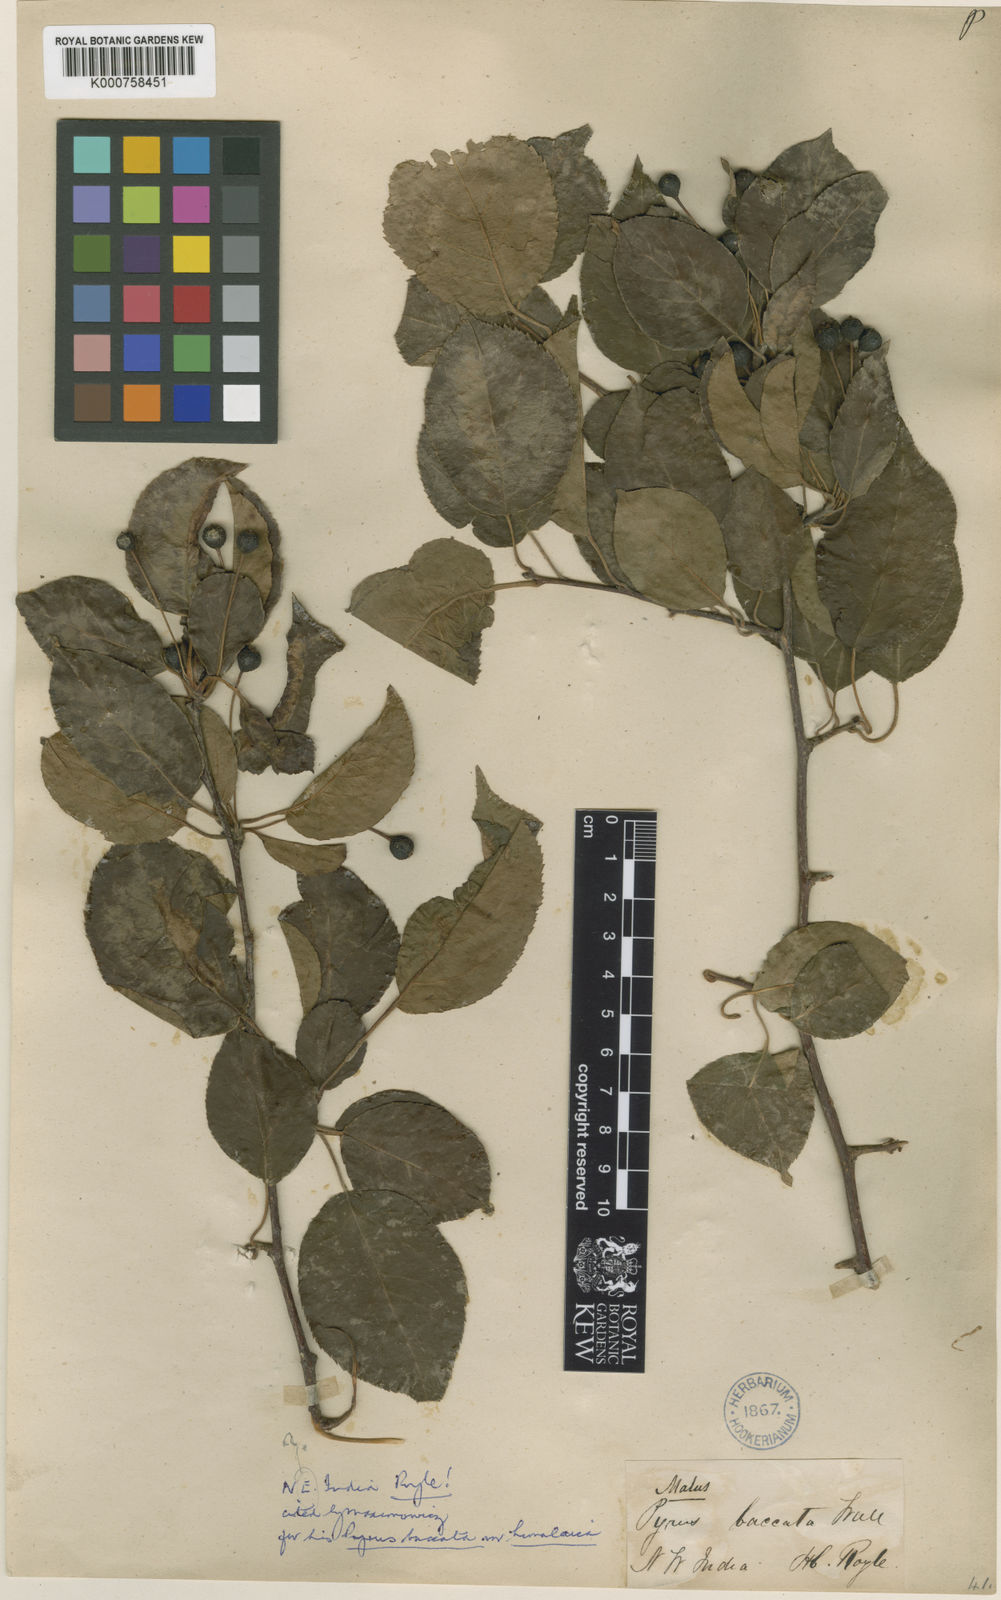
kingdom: Plantae
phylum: Tracheophyta
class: Magnoliopsida
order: Rosales
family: Rosaceae
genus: Malus
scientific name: Malus rockii
